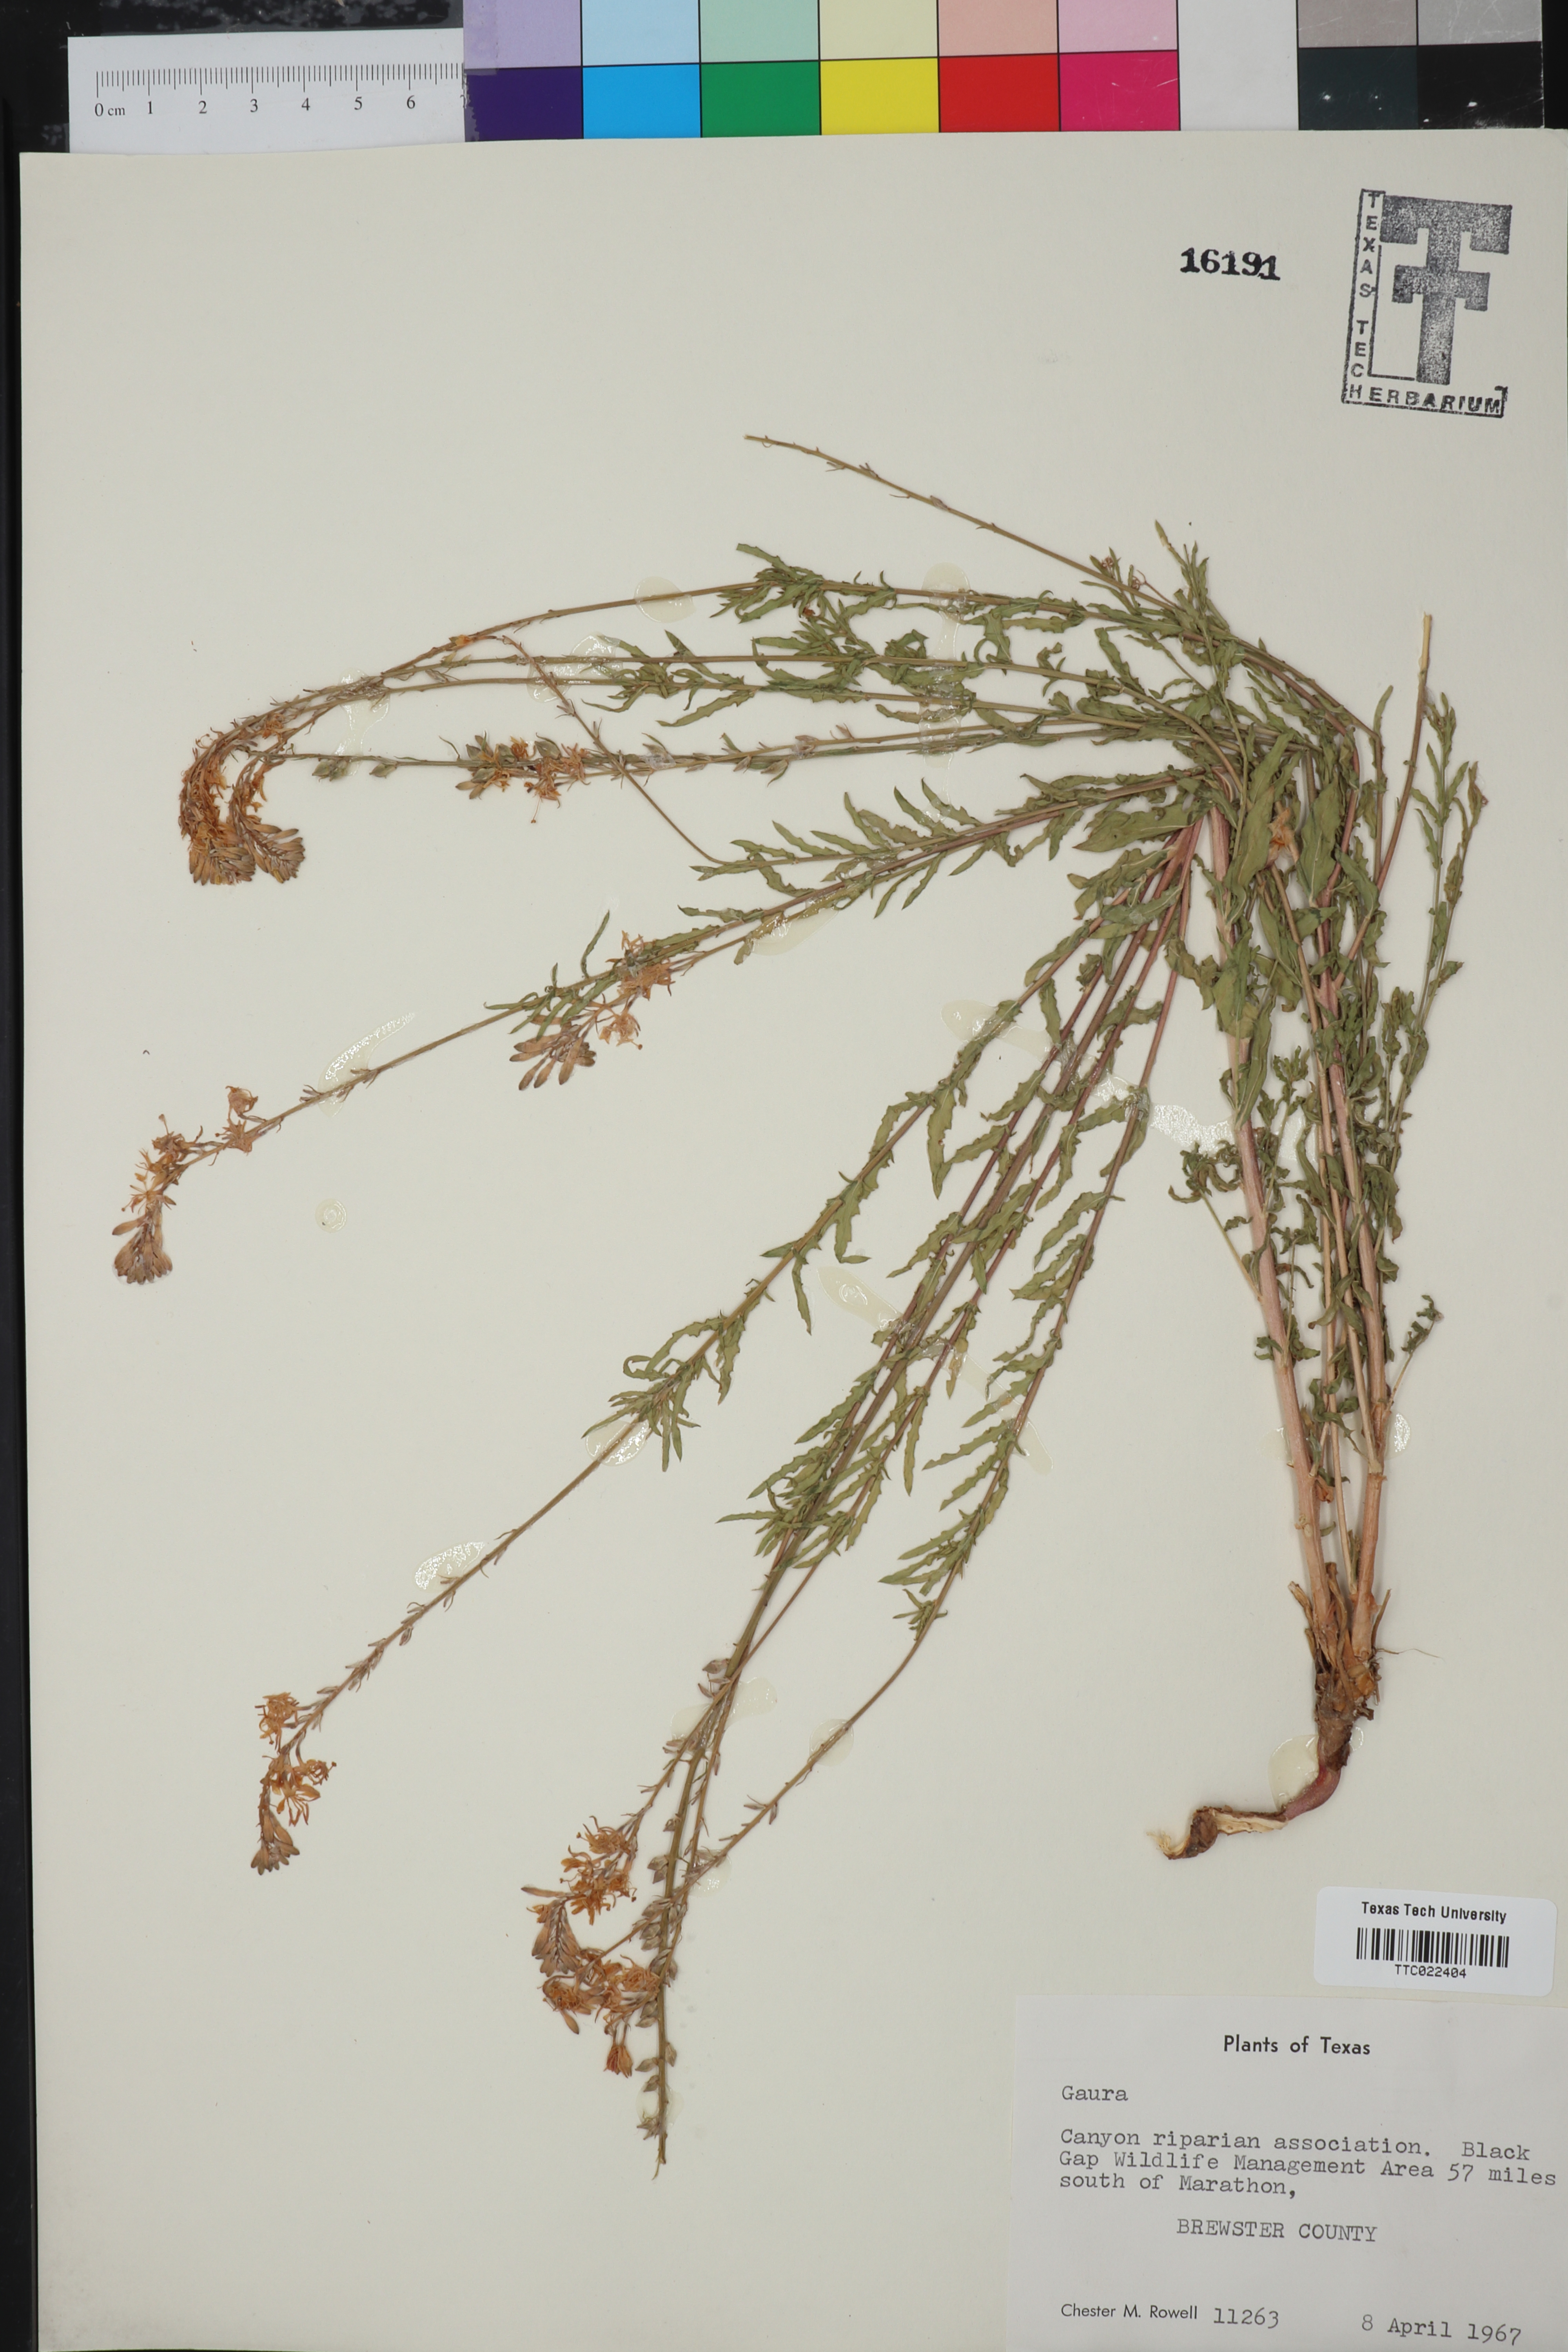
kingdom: Plantae
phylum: Tracheophyta
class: Magnoliopsida
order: Myrtales
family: Onagraceae
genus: Oenothera
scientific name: Oenothera
